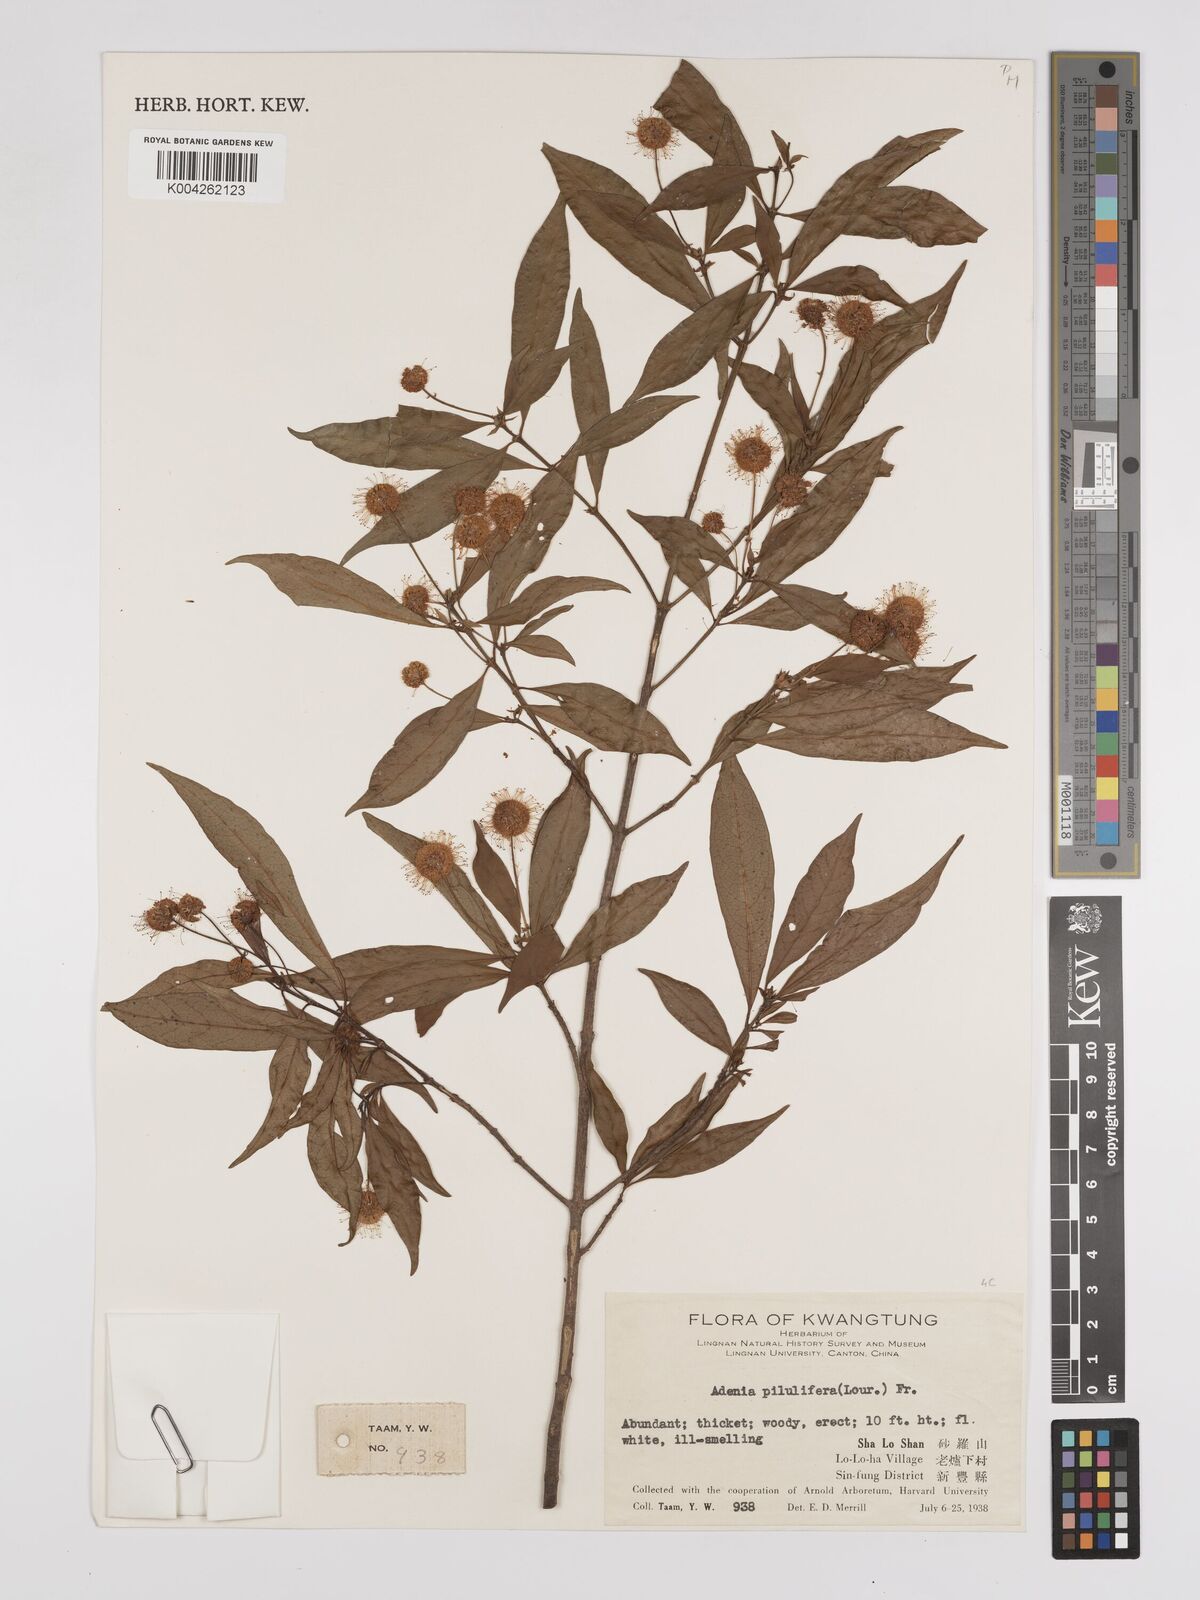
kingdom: Plantae
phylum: Tracheophyta
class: Magnoliopsida
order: Gentianales
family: Rubiaceae
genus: Adina
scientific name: Adina pilulifera
